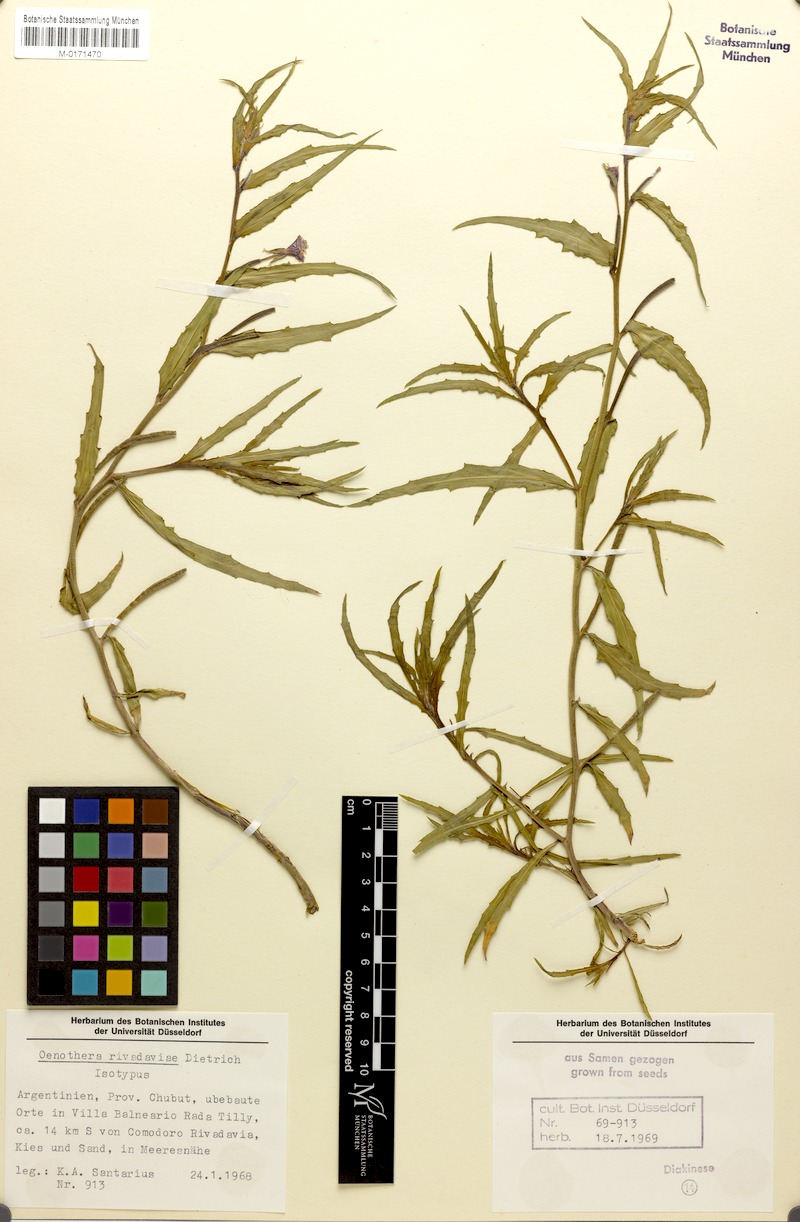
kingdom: Plantae
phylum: Tracheophyta
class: Magnoliopsida
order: Myrtales
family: Onagraceae
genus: Oenothera
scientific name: Oenothera rivadaviae
